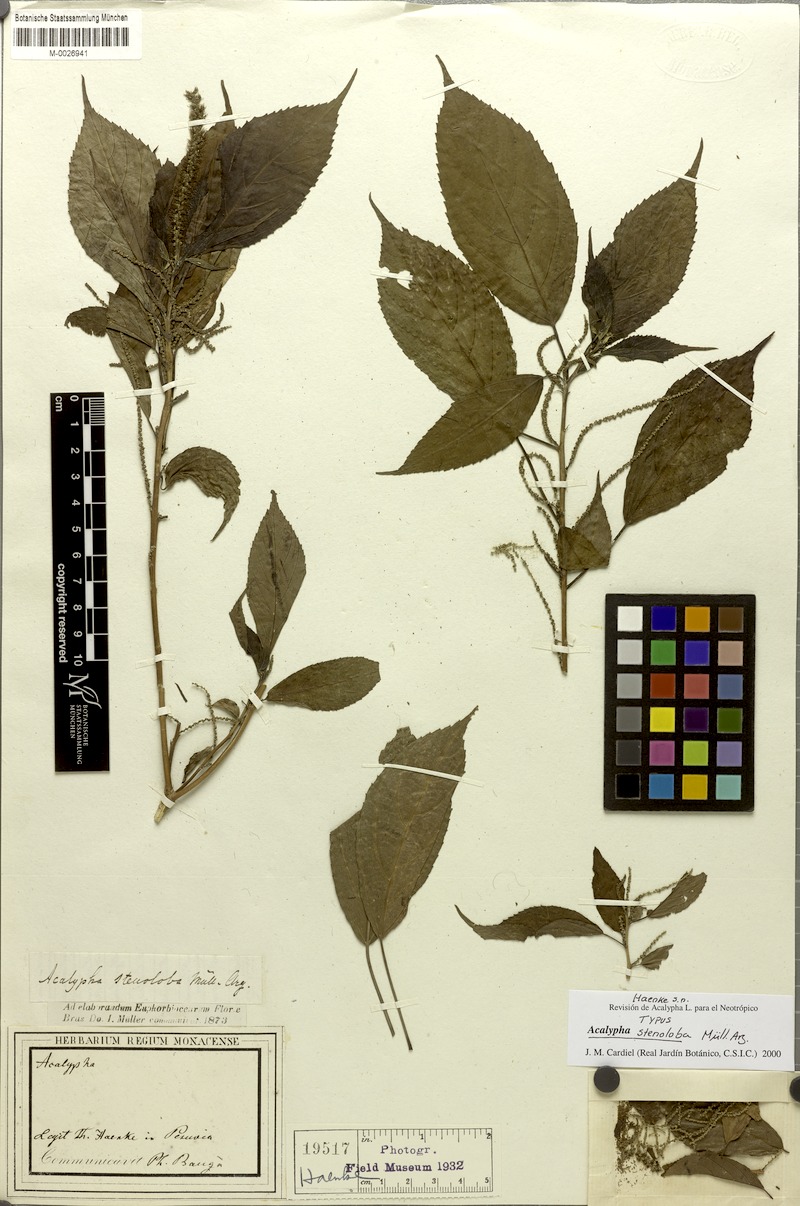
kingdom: Plantae
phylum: Tracheophyta
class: Magnoliopsida
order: Malpighiales
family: Euphorbiaceae
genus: Acalypha
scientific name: Acalypha stenoloba
